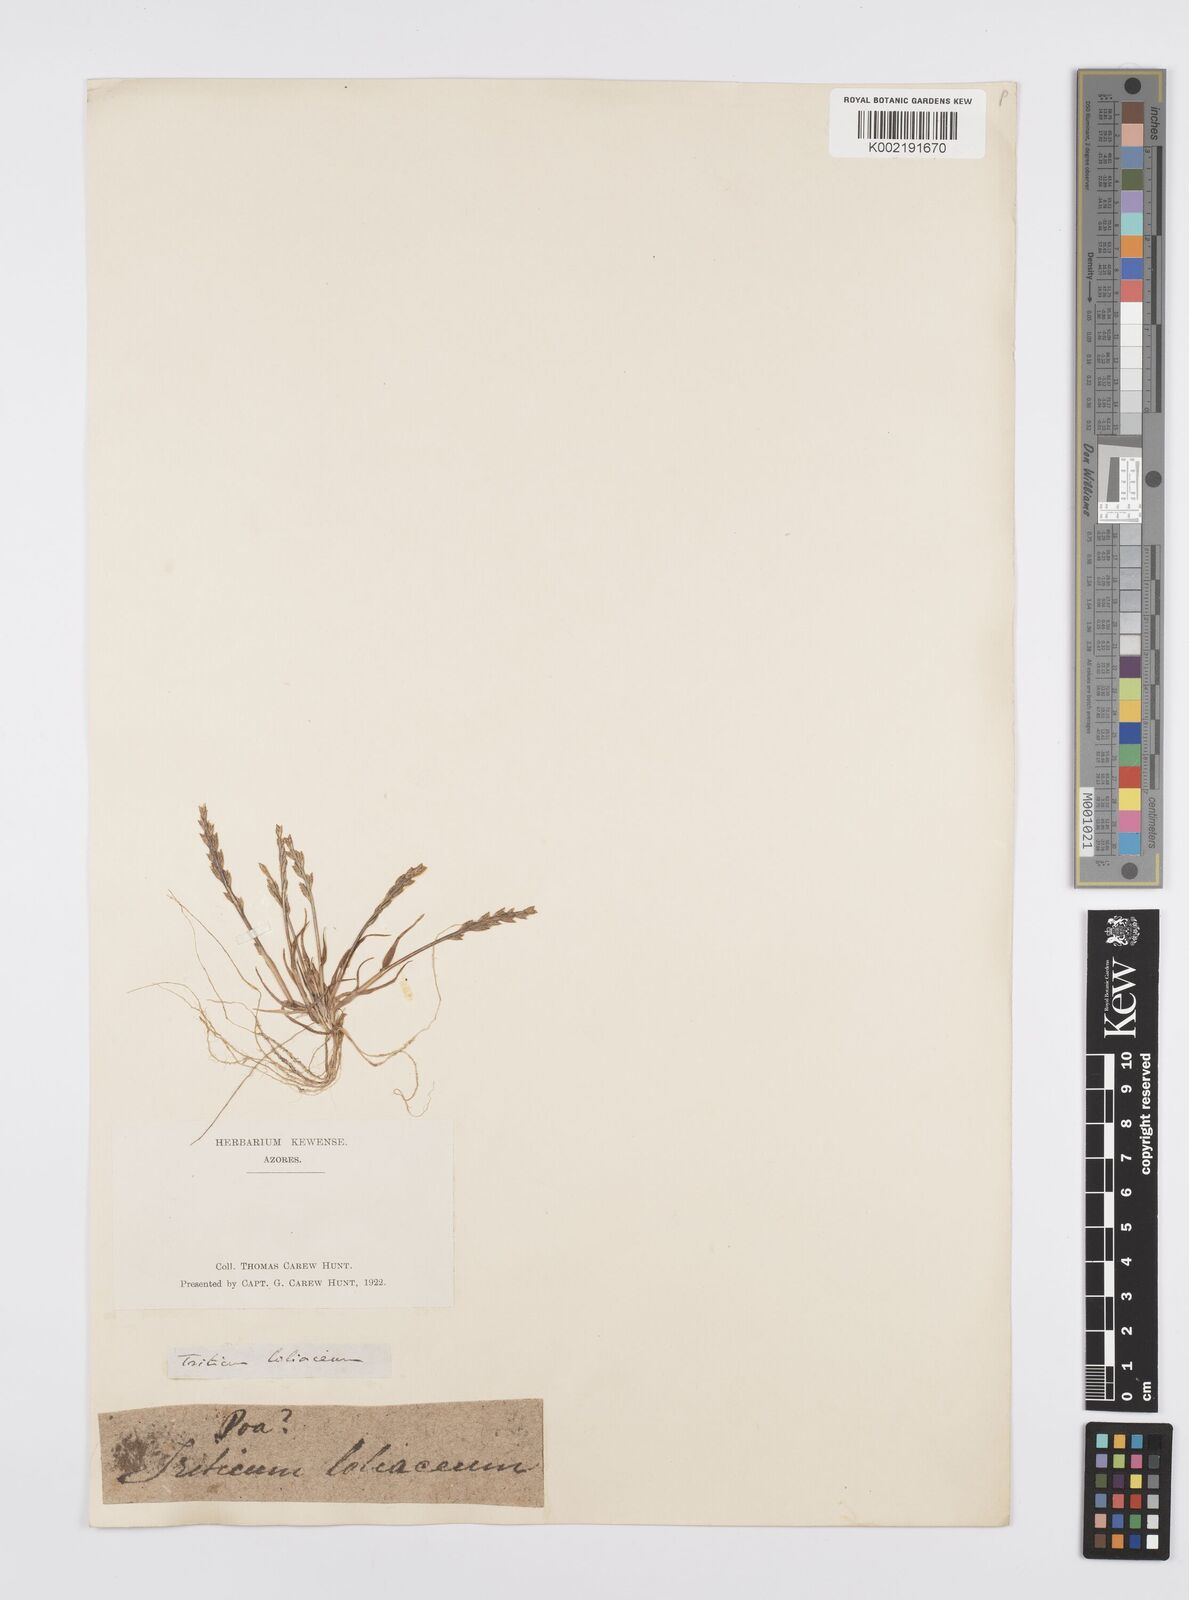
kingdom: Plantae
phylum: Tracheophyta
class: Liliopsida
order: Poales
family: Poaceae
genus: Catapodium
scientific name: Catapodium marinum
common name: Sea fern-grass
